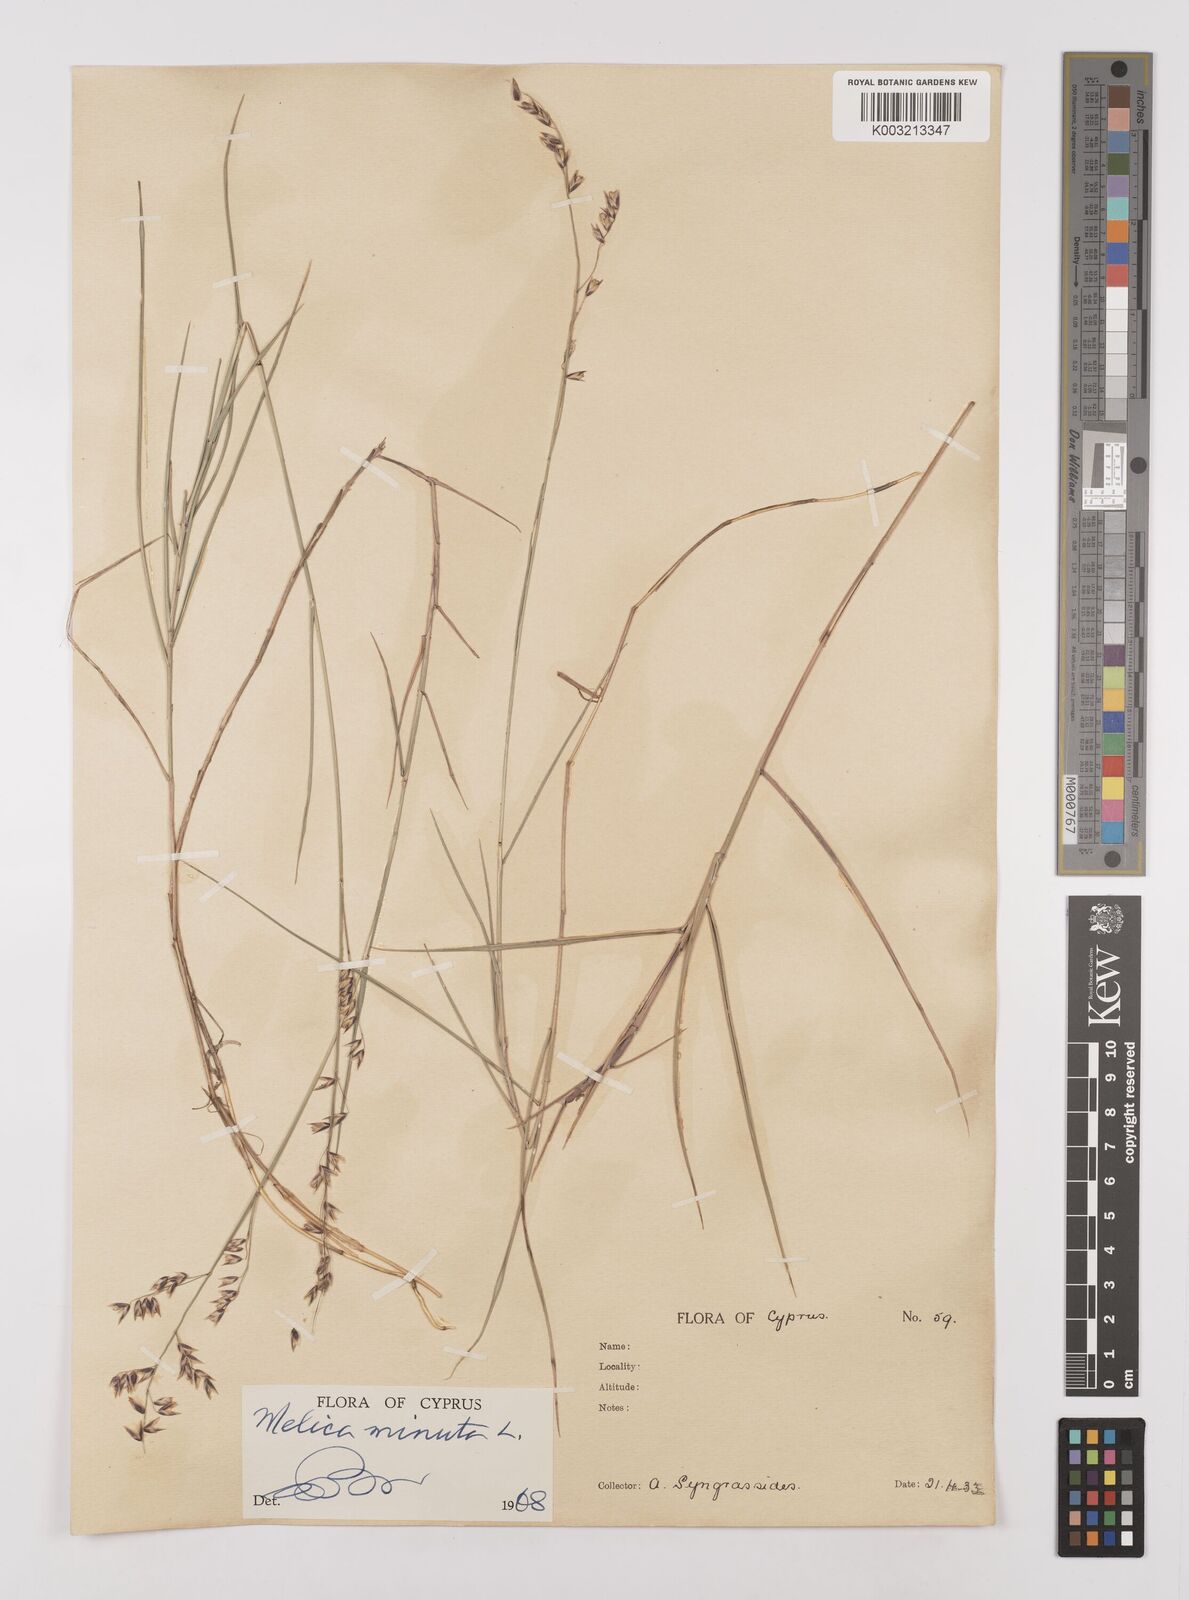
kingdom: Plantae
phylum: Tracheophyta
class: Liliopsida
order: Poales
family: Poaceae
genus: Melica
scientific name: Melica minuta
